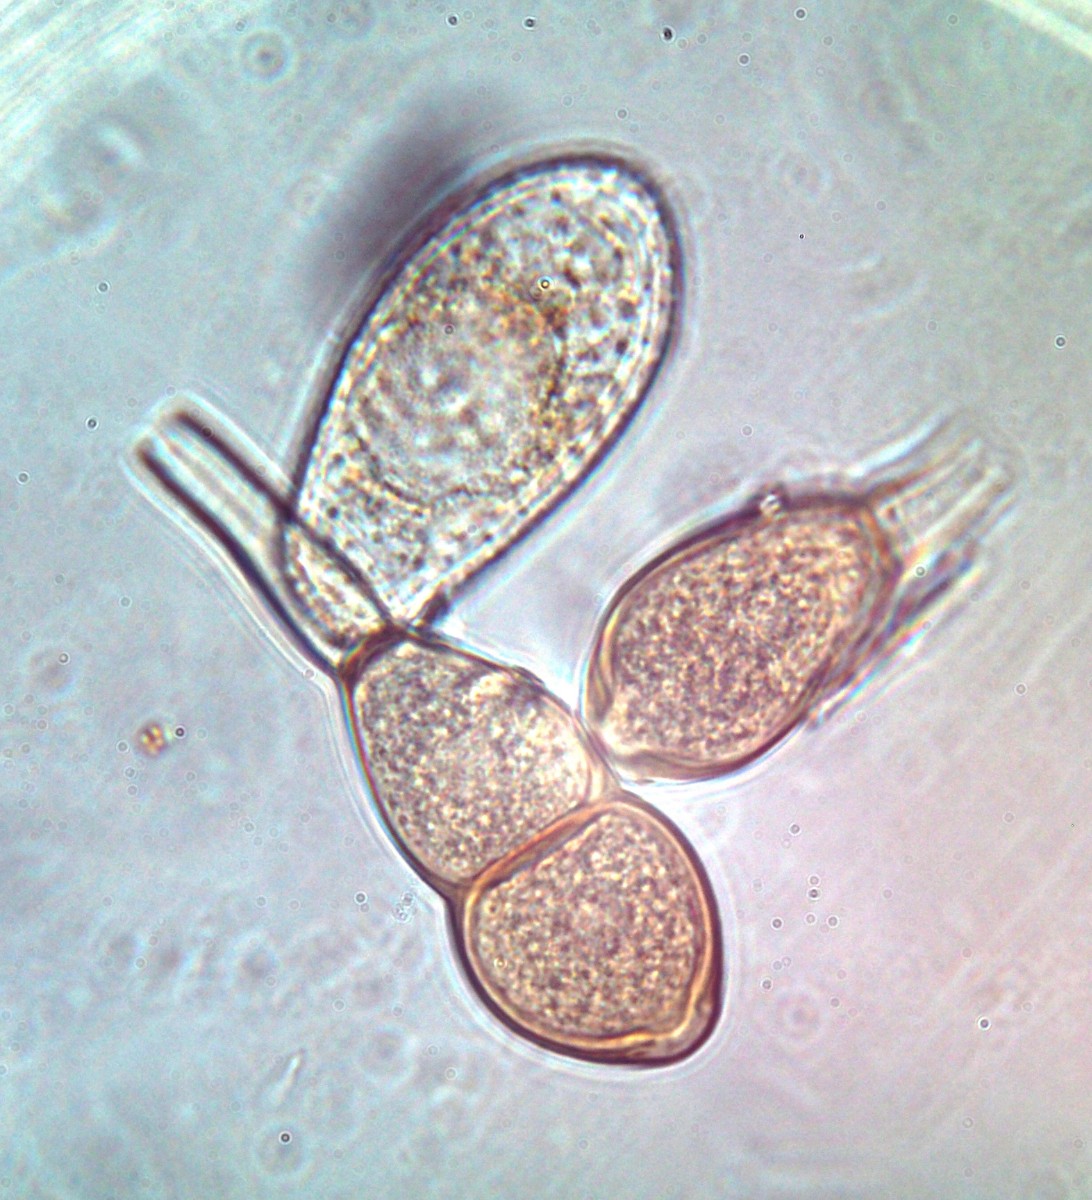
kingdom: Fungi
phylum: Basidiomycota
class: Pucciniomycetes
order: Pucciniales
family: Pucciniaceae
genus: Peristemma
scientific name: Peristemma pseudosphaeria
